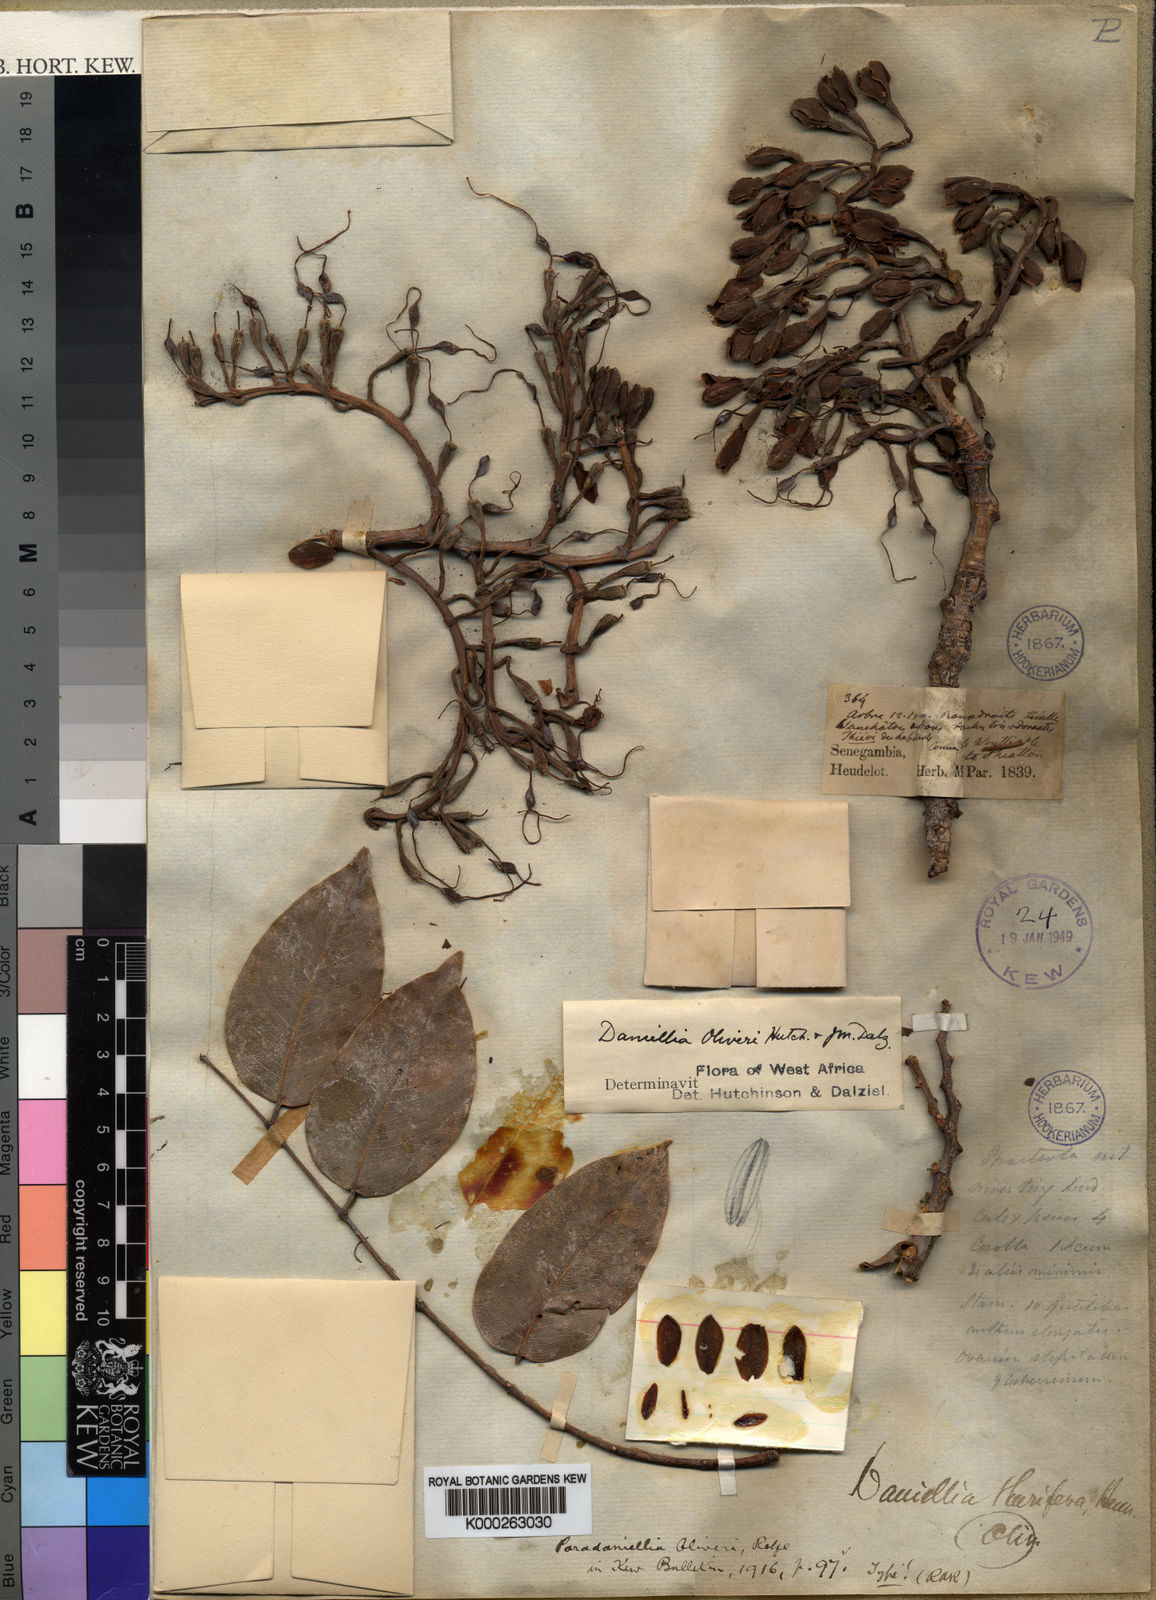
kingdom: Plantae
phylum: Tracheophyta
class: Magnoliopsida
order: Fabales
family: Fabaceae
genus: Daniellia
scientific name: Daniellia oliveri
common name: African copaiba balsamtree
